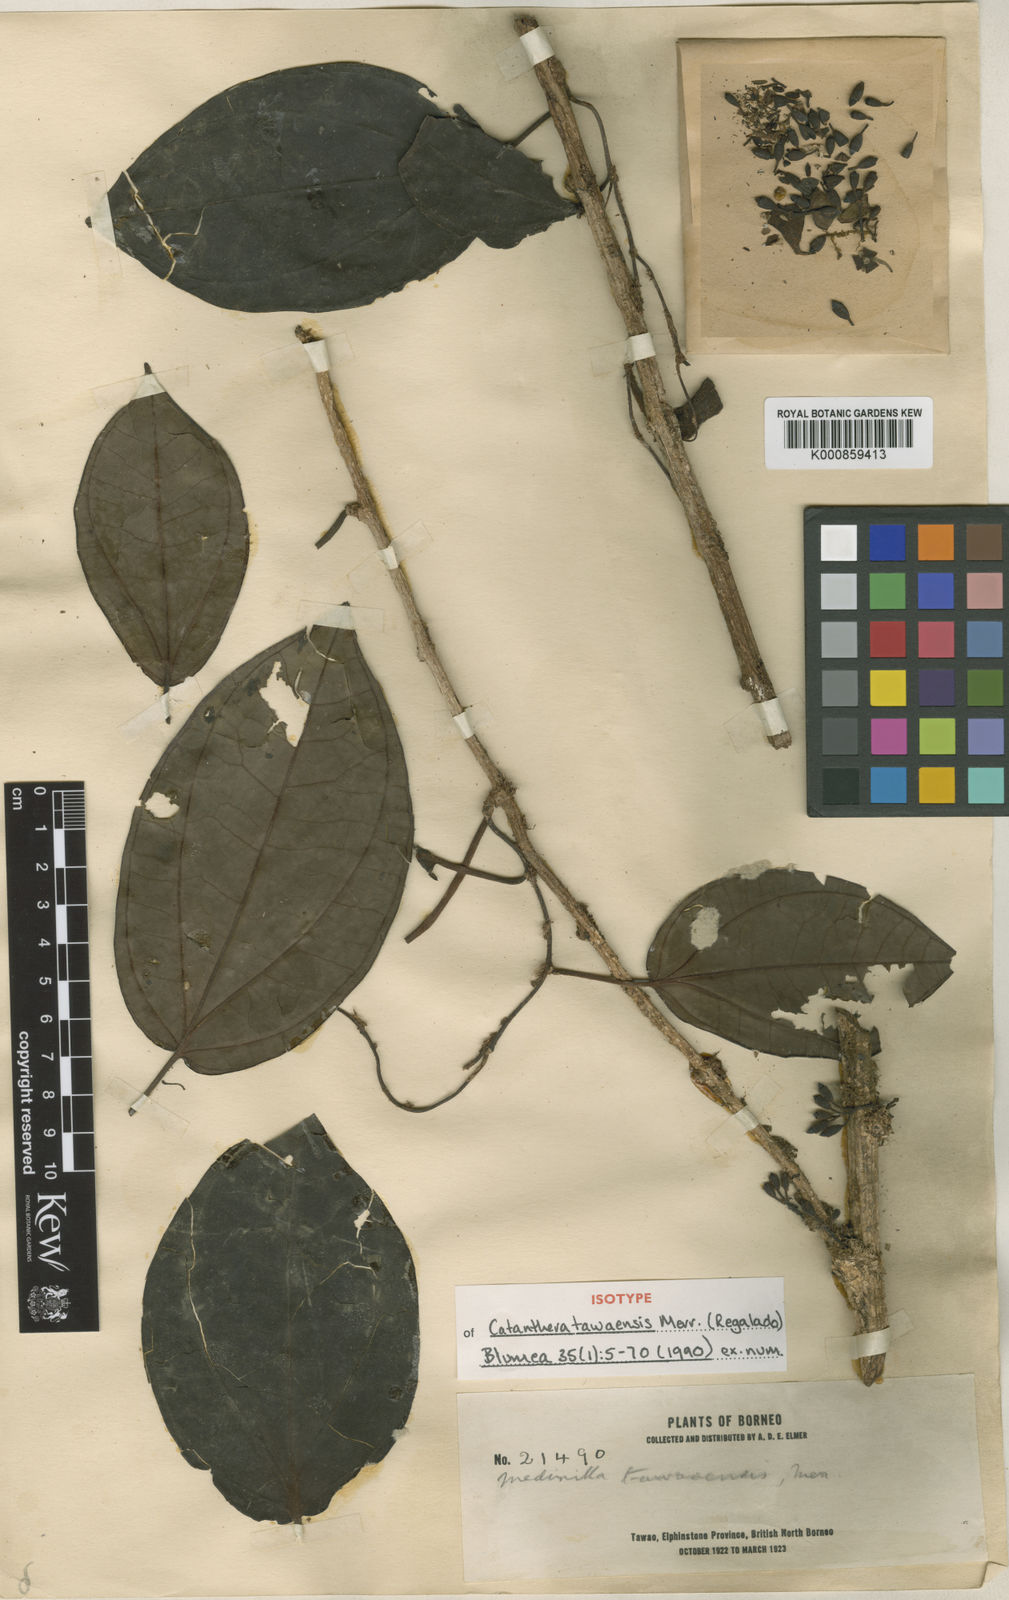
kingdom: Plantae
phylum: Tracheophyta
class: Magnoliopsida
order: Myrtales
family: Melastomataceae
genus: Catanthera
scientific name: Catanthera tawaensis
